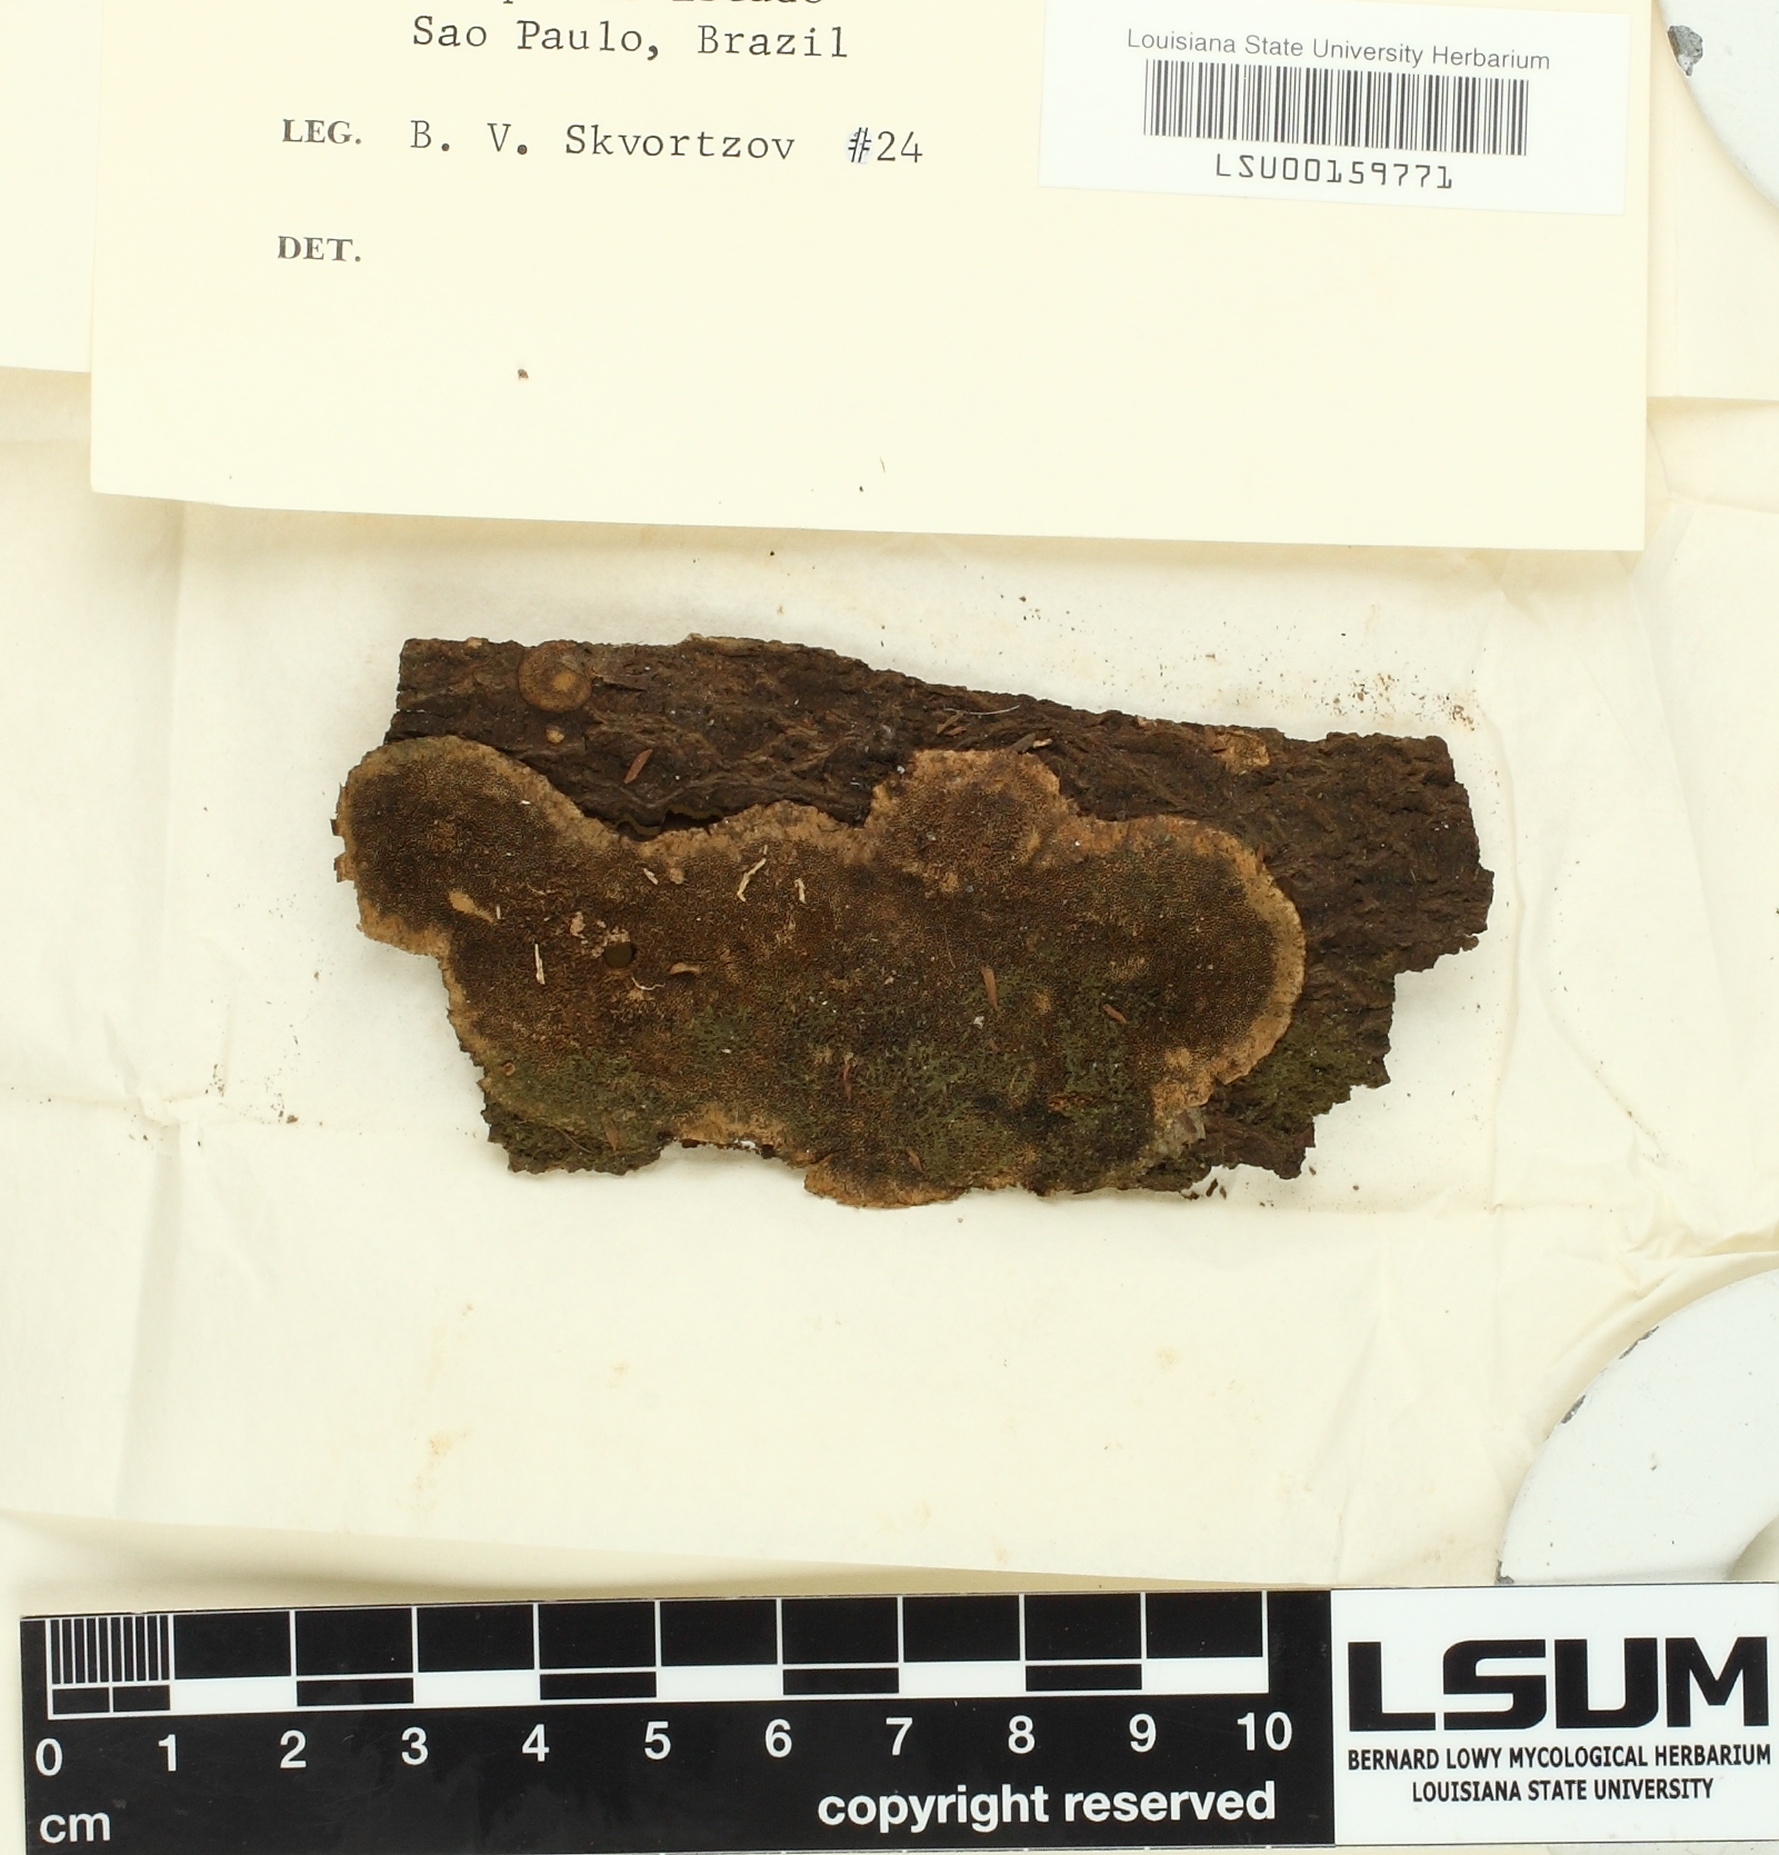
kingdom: Fungi
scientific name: Fungi
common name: Fungi
